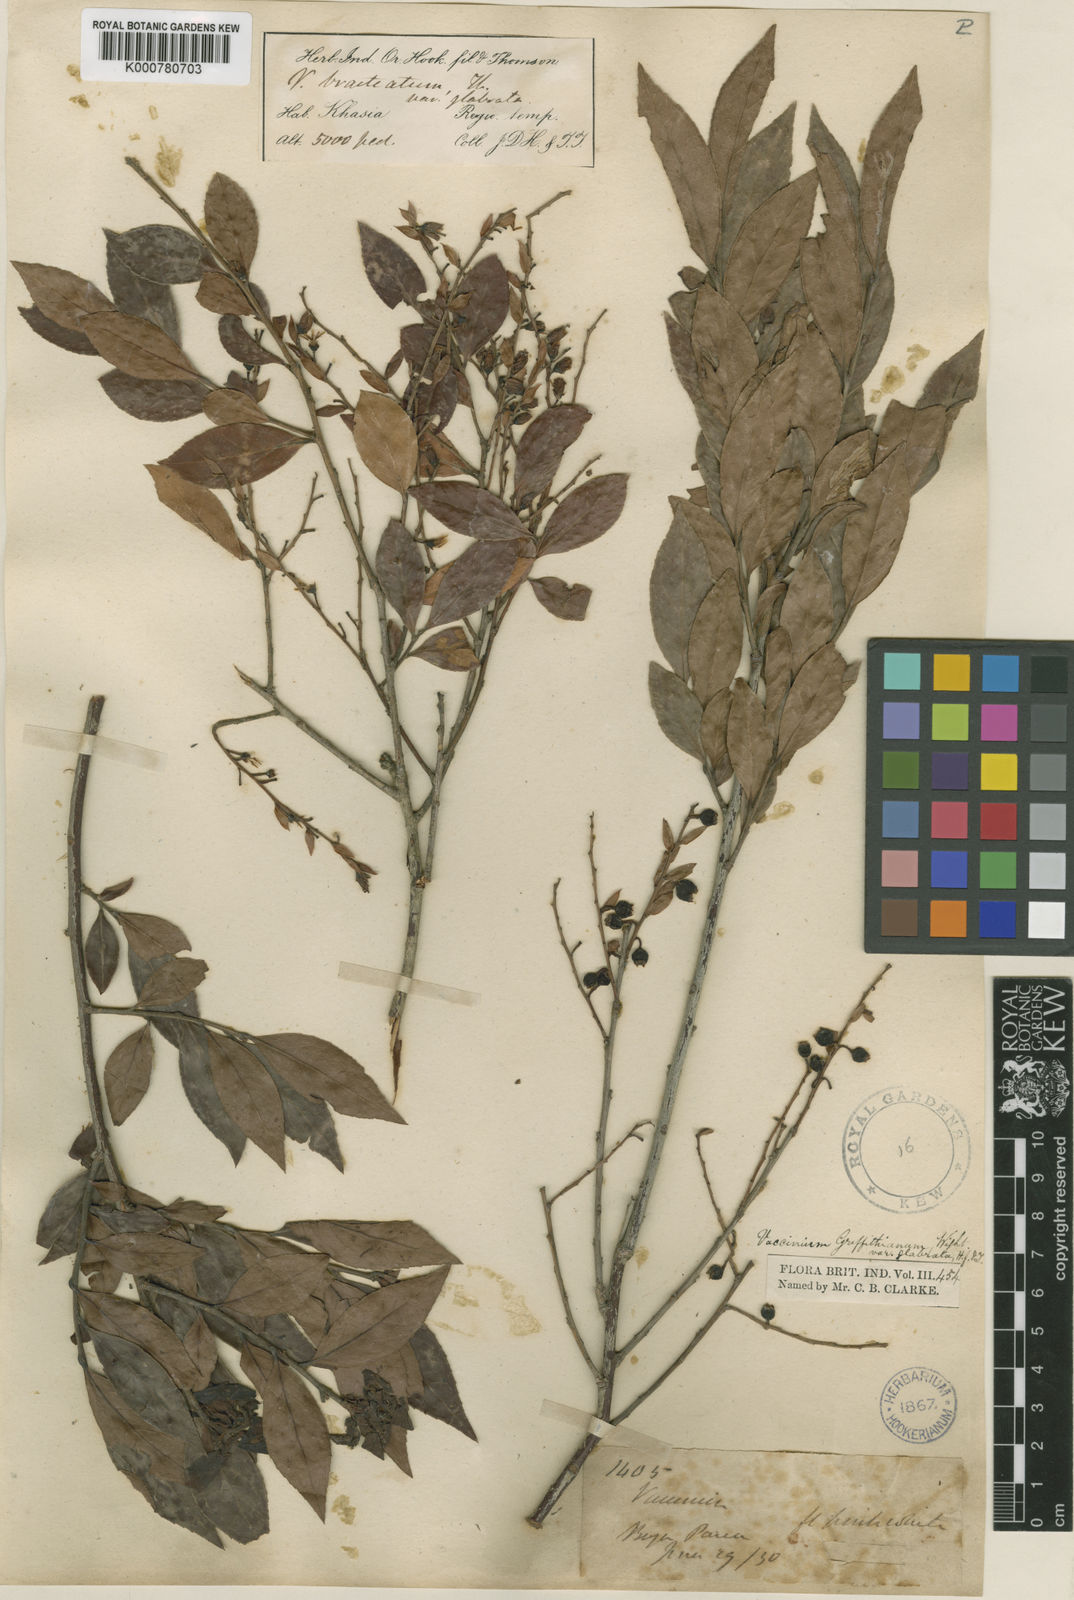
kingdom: Plantae
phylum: Tracheophyta
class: Magnoliopsida
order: Ericales
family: Ericaceae
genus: Vaccinium
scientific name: Vaccinium griffithianum
